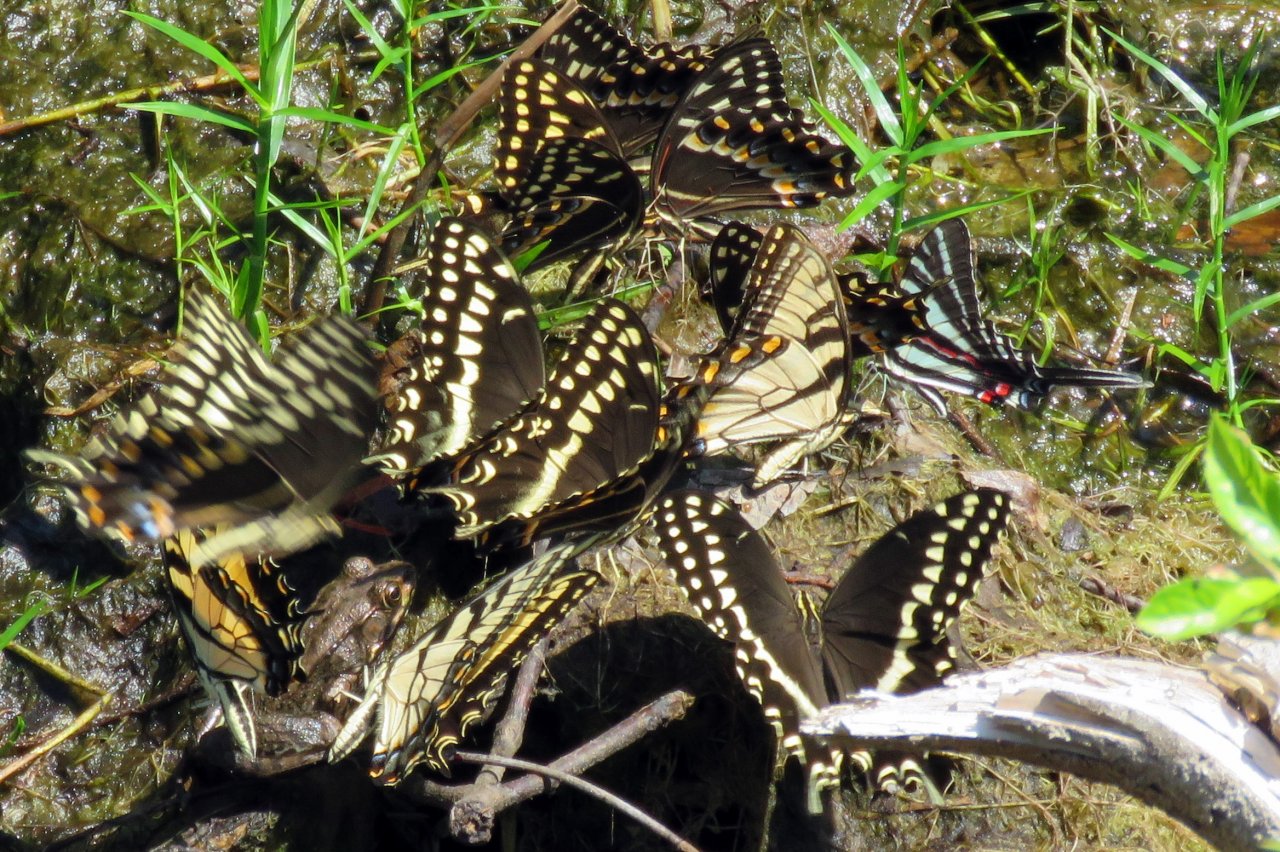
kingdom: Animalia
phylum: Arthropoda
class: Insecta
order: Lepidoptera
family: Papilionidae
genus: Pterourus
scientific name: Pterourus palamedes
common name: Palamedes Swallowtail
